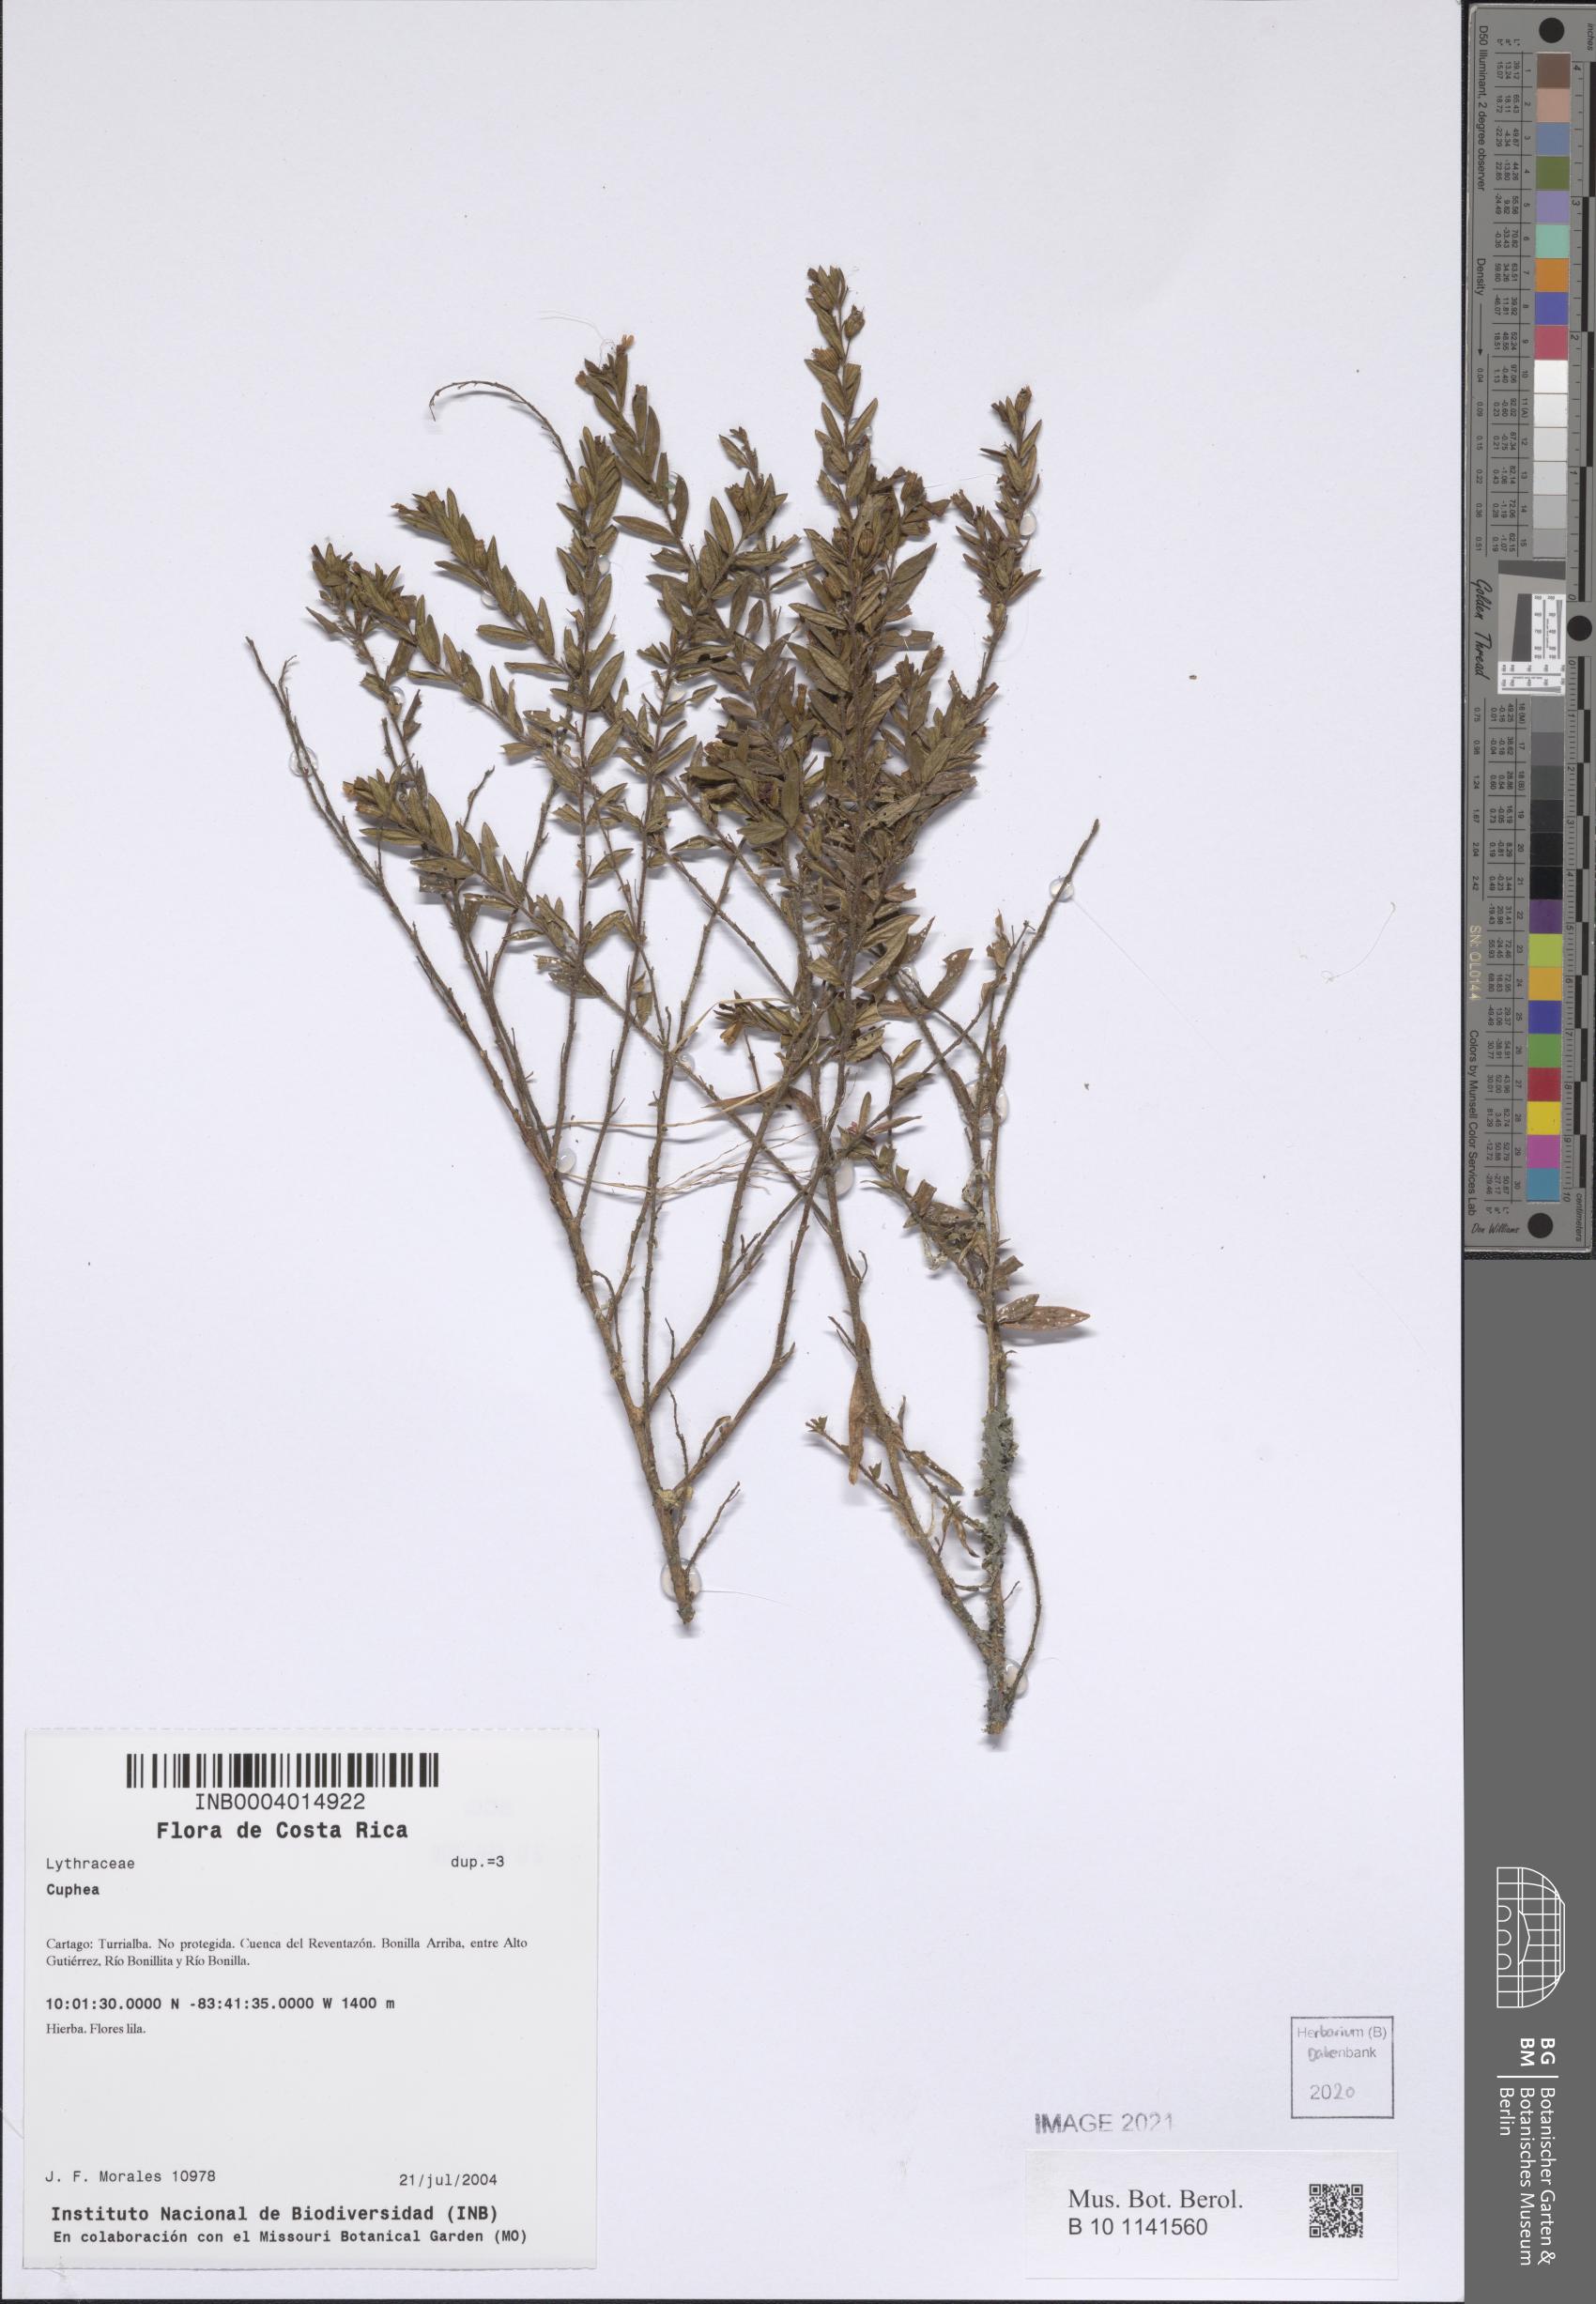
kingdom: Plantae
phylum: Tracheophyta
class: Magnoliopsida
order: Myrtales
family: Lythraceae
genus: Cuphea
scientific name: Cuphea
